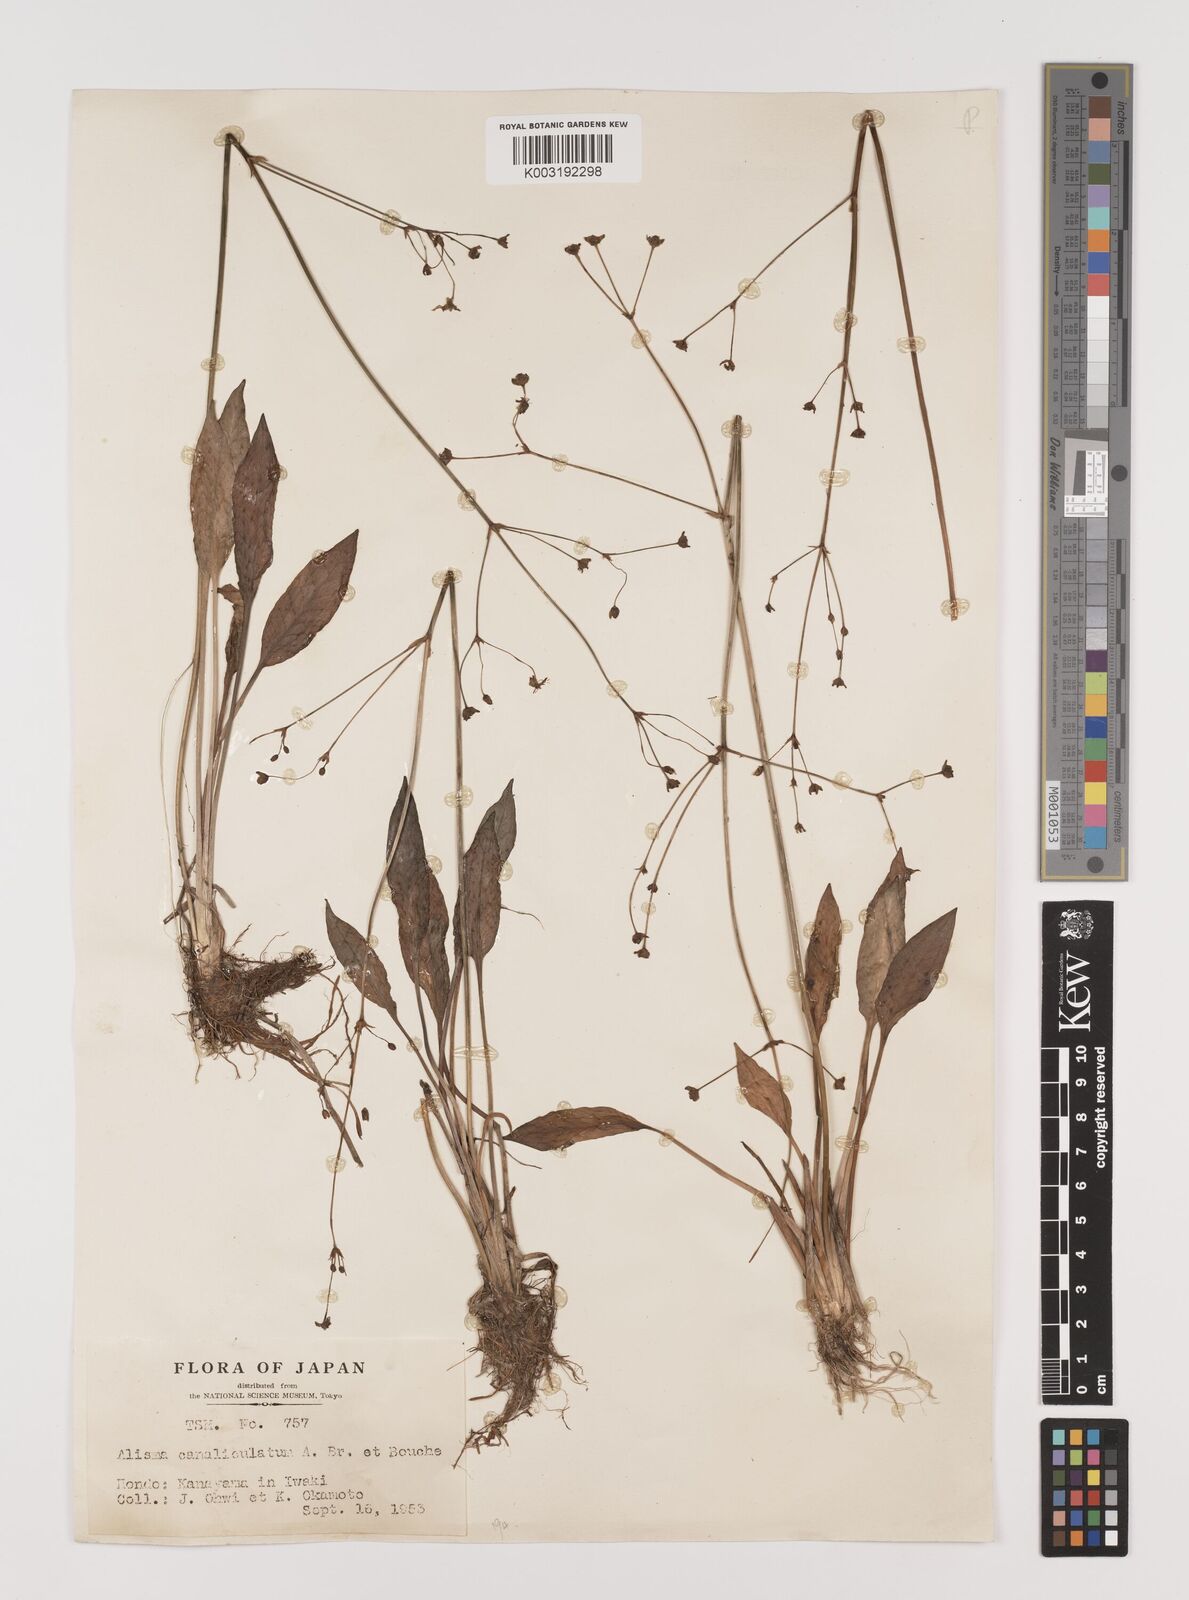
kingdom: Plantae
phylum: Tracheophyta
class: Liliopsida
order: Alismatales
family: Alismataceae
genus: Alisma
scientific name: Alisma canaliculatum
